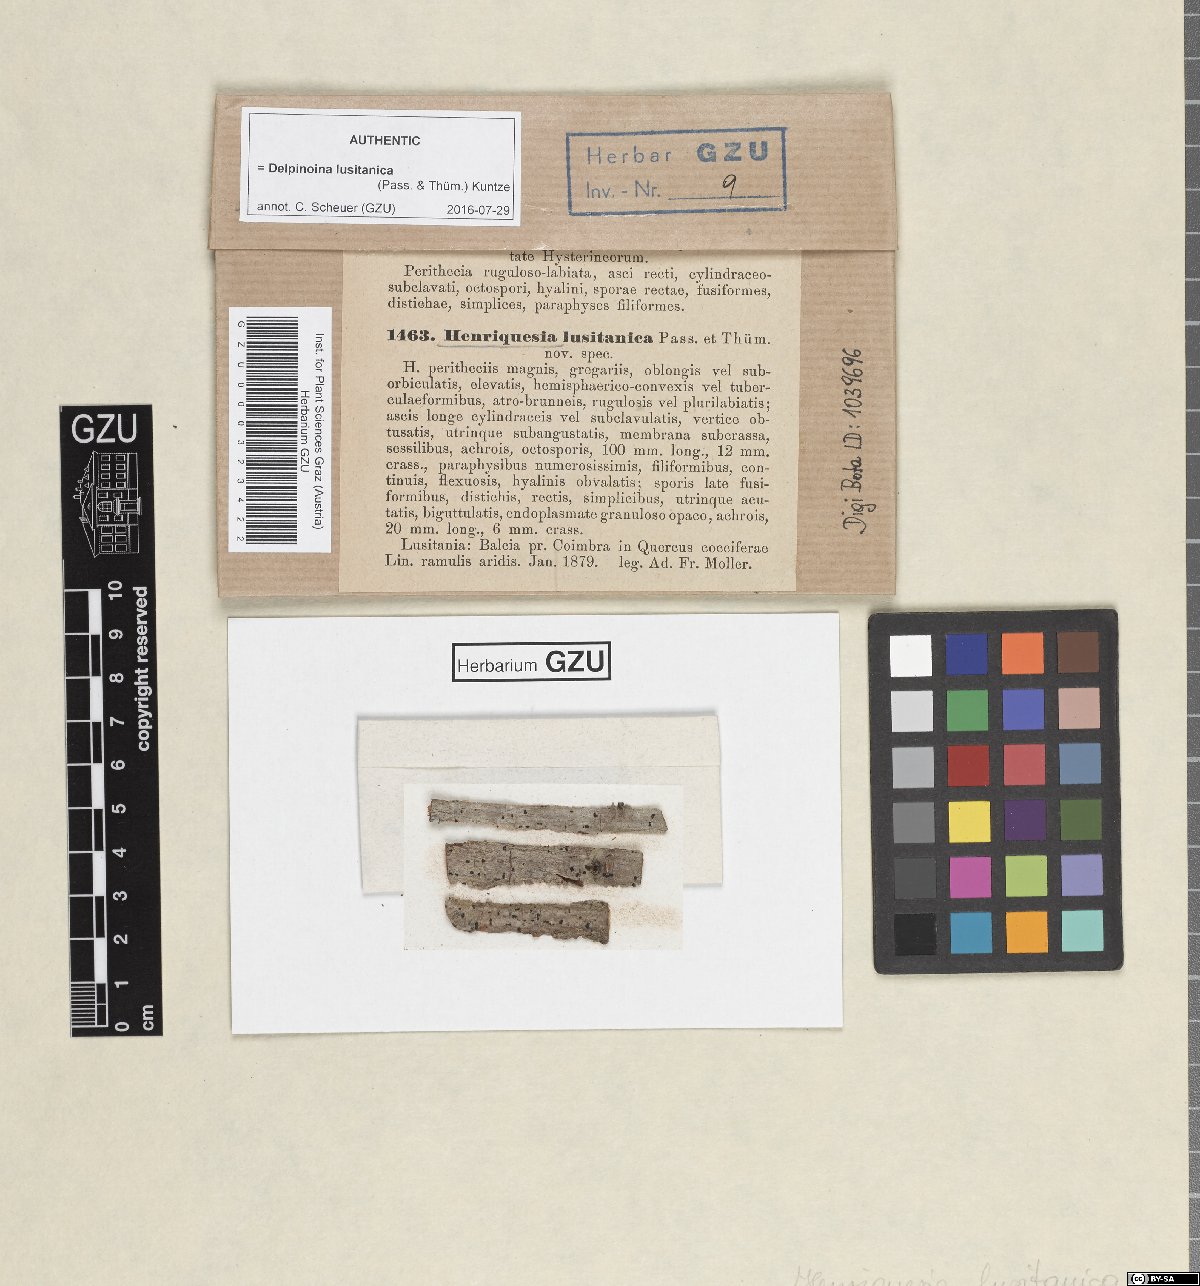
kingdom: Fungi
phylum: Ascomycota
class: Leotiomycetes
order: Rhytismatales
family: Ascodichaenaceae
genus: Delpinoina
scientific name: Delpinoina lusitanica
